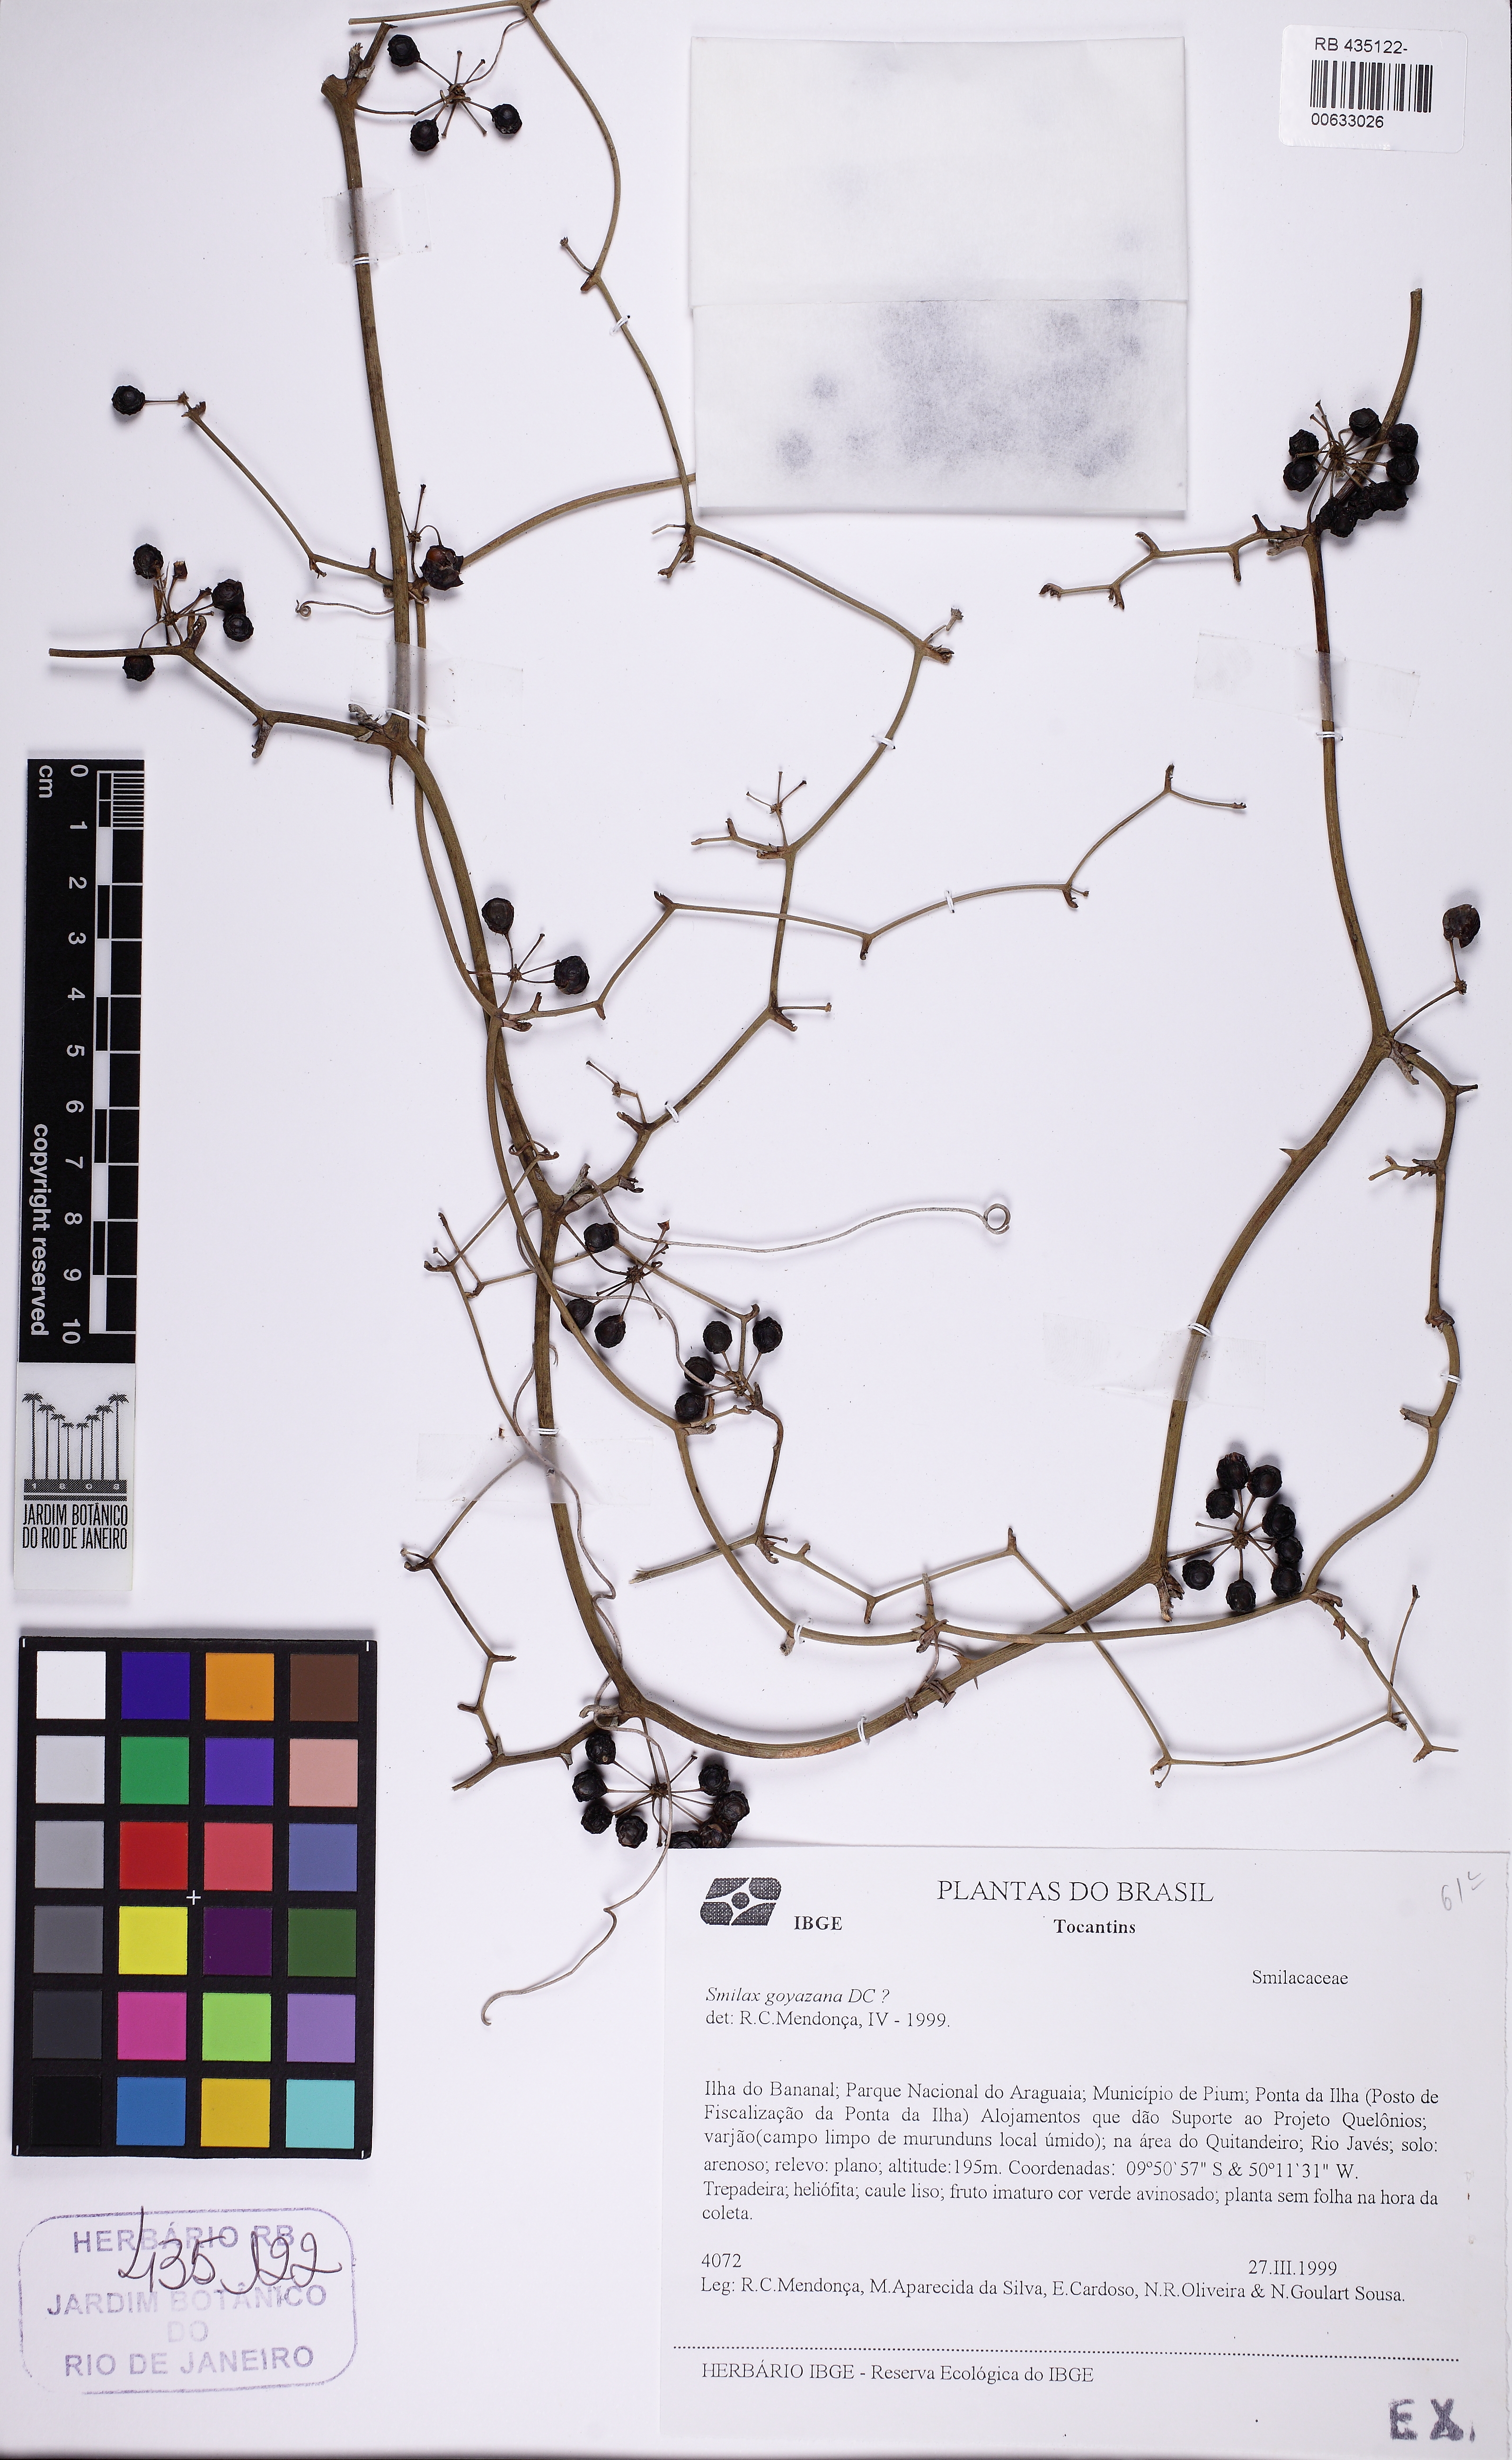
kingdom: Plantae
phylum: Tracheophyta
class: Liliopsida
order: Liliales
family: Smilacaceae
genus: Smilax
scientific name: Smilax goyazana
